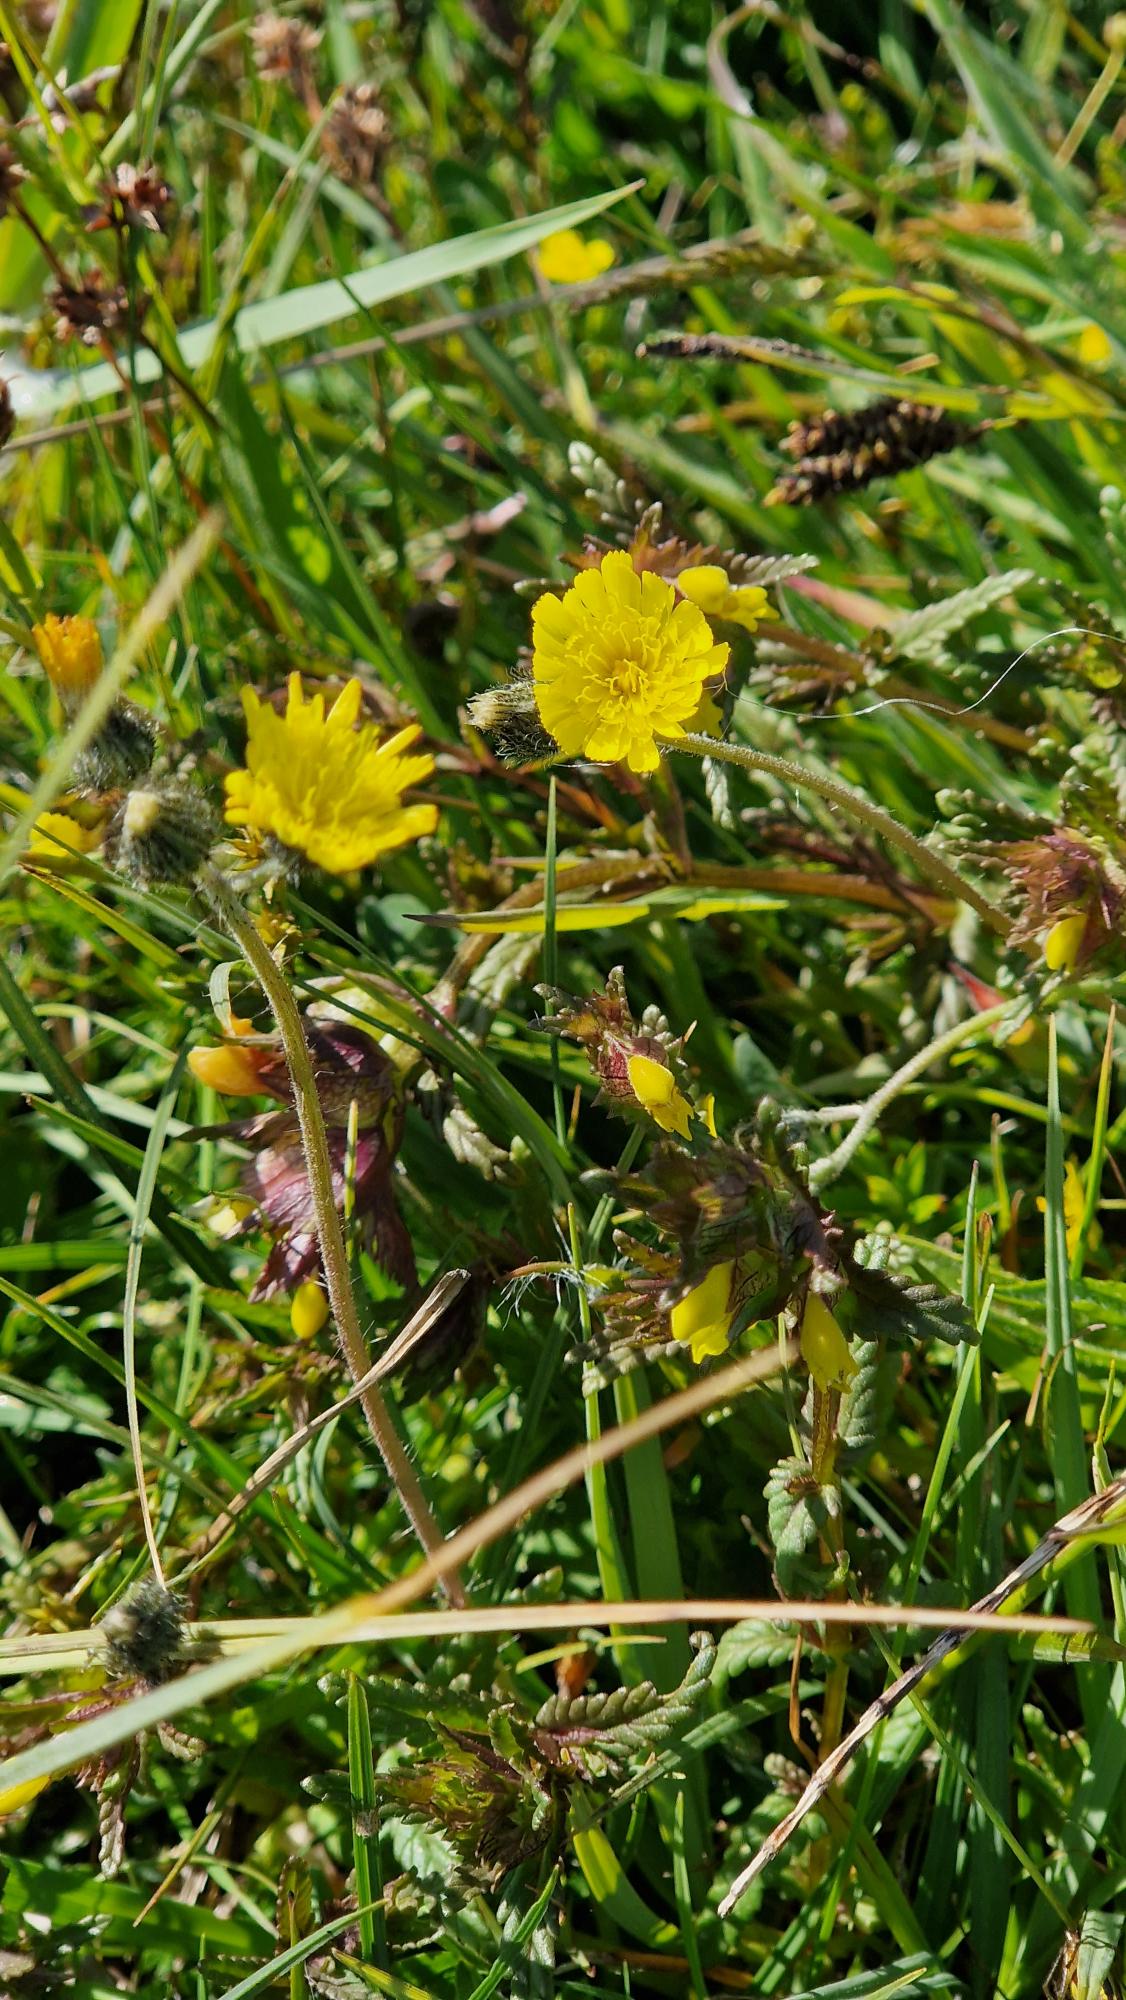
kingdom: Plantae
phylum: Tracheophyta
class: Magnoliopsida
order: Asterales
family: Asteraceae
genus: Pilosella
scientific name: Pilosella lactucella
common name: Lancetbladet høgeurt
